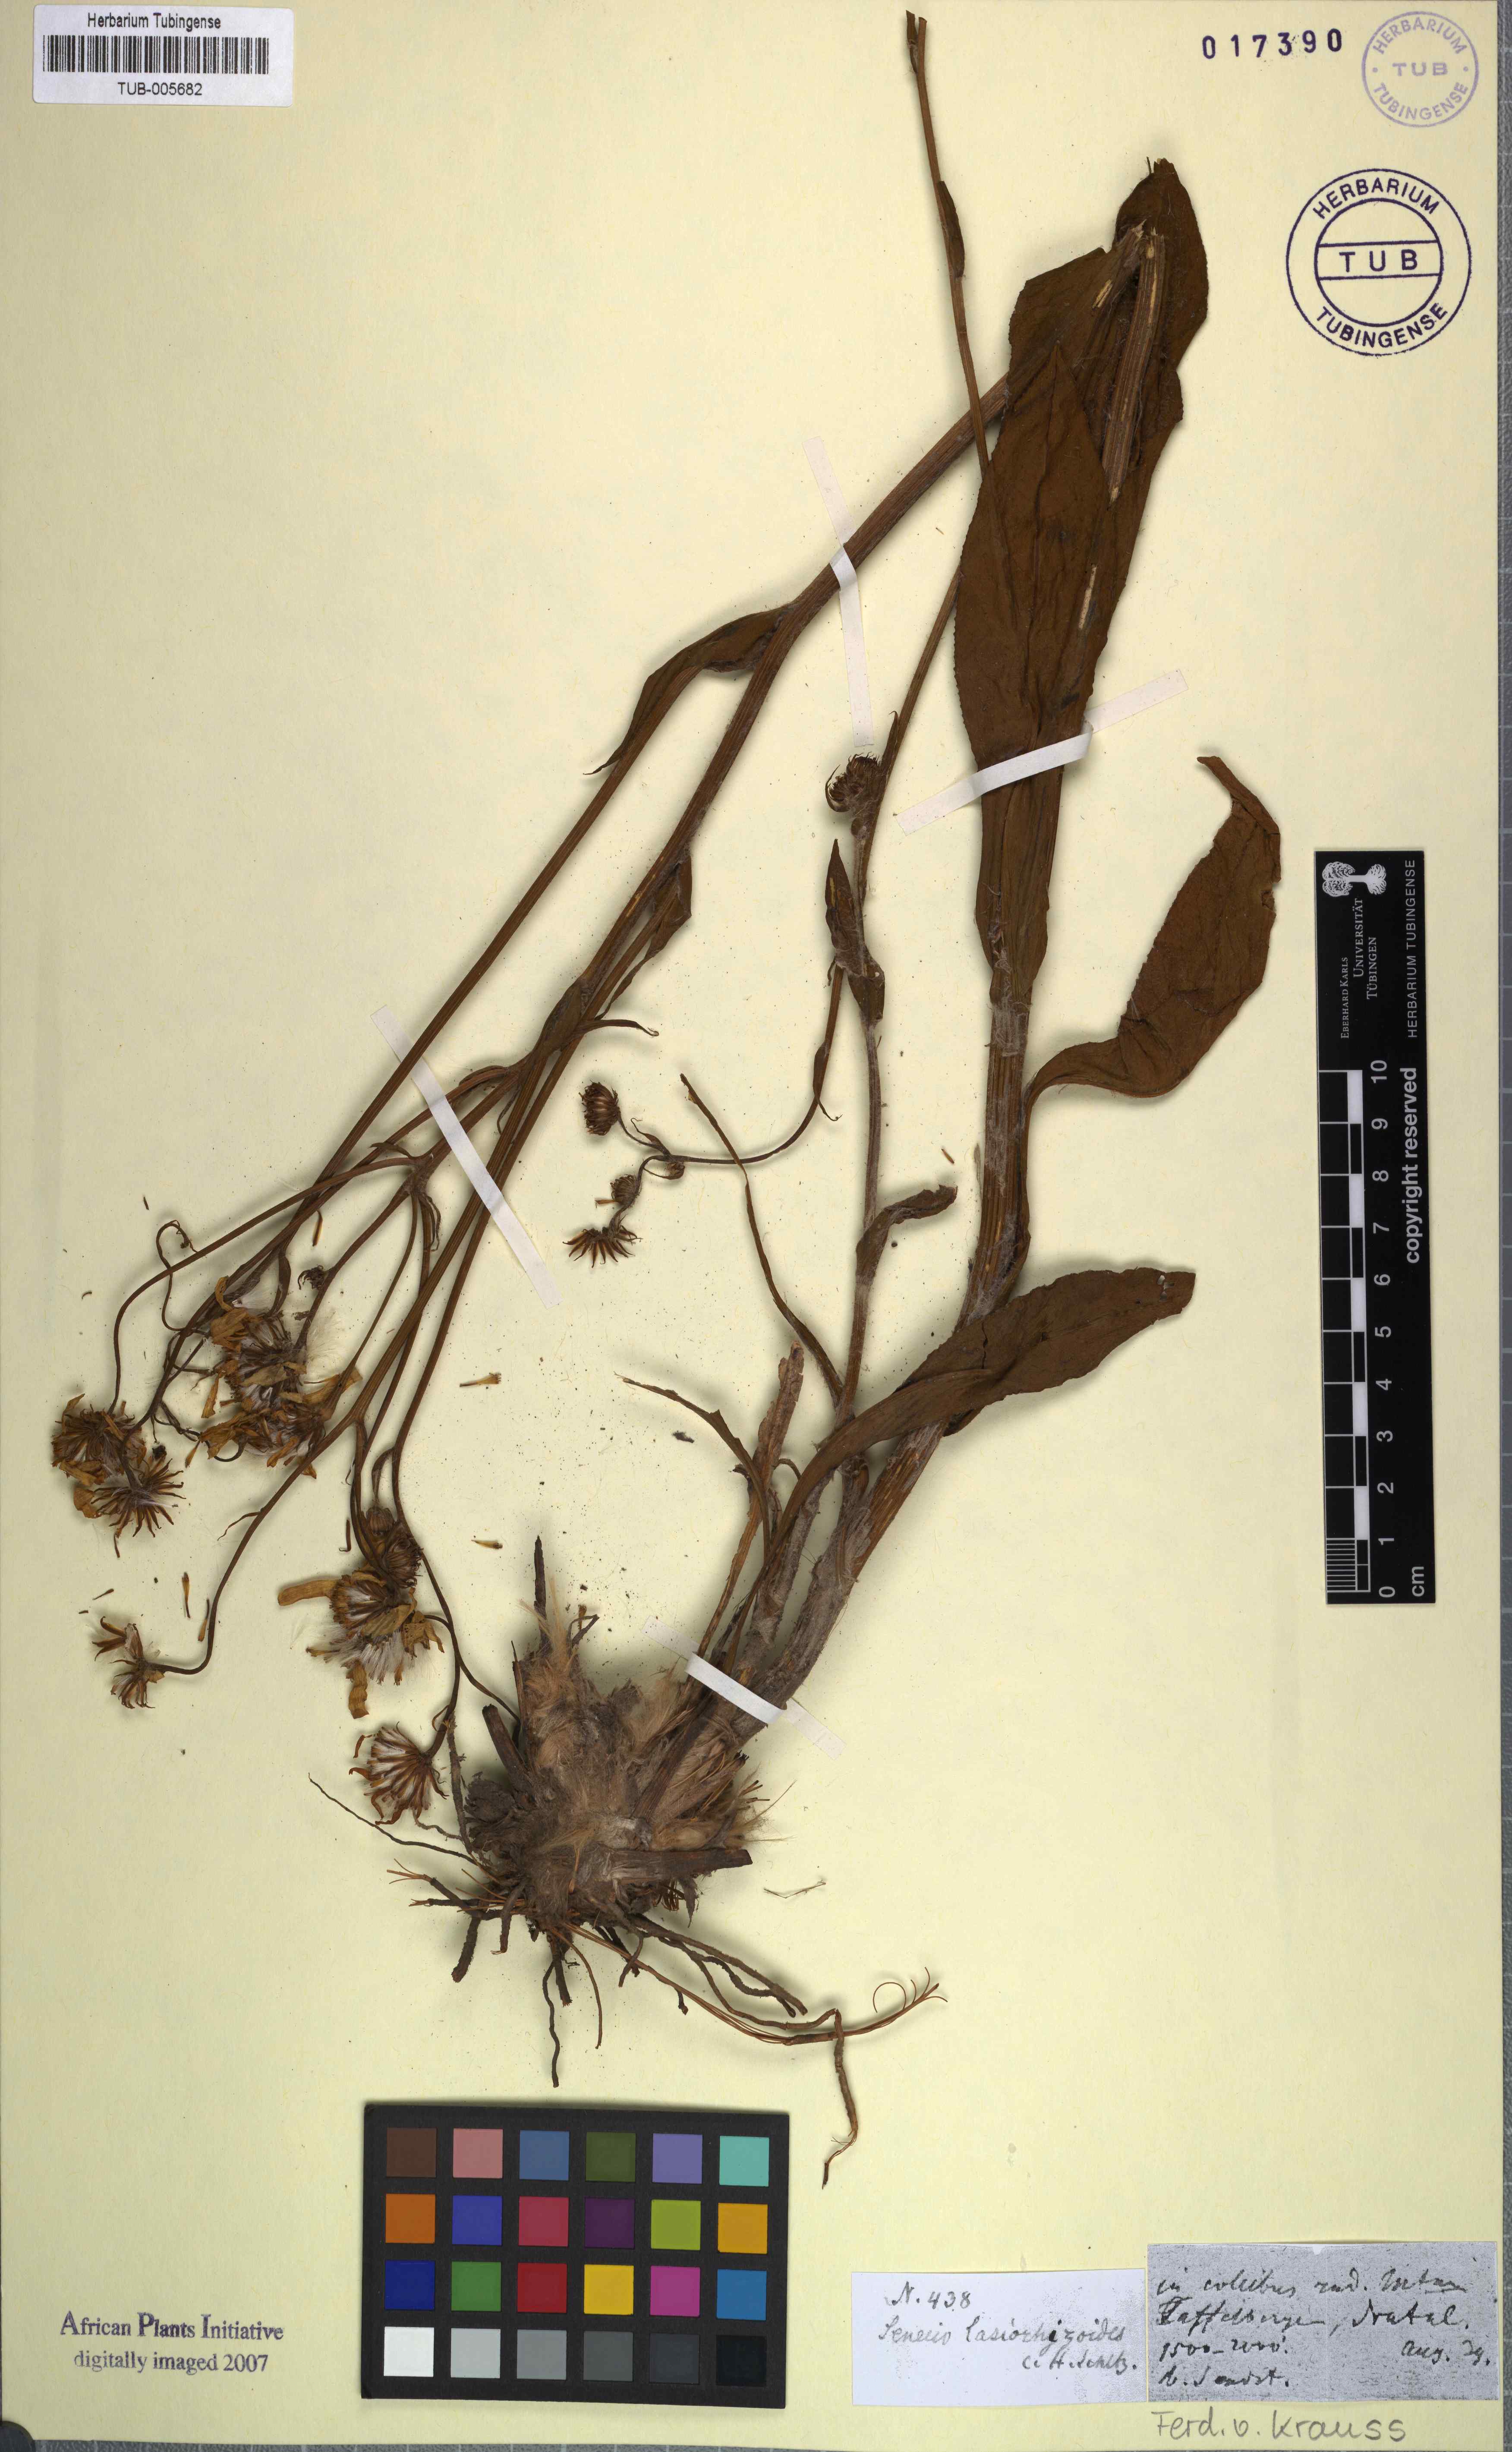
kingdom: Plantae
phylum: Tracheophyta
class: Magnoliopsida
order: Asterales
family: Asteraceae
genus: Senecio
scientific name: Senecio coronatus
